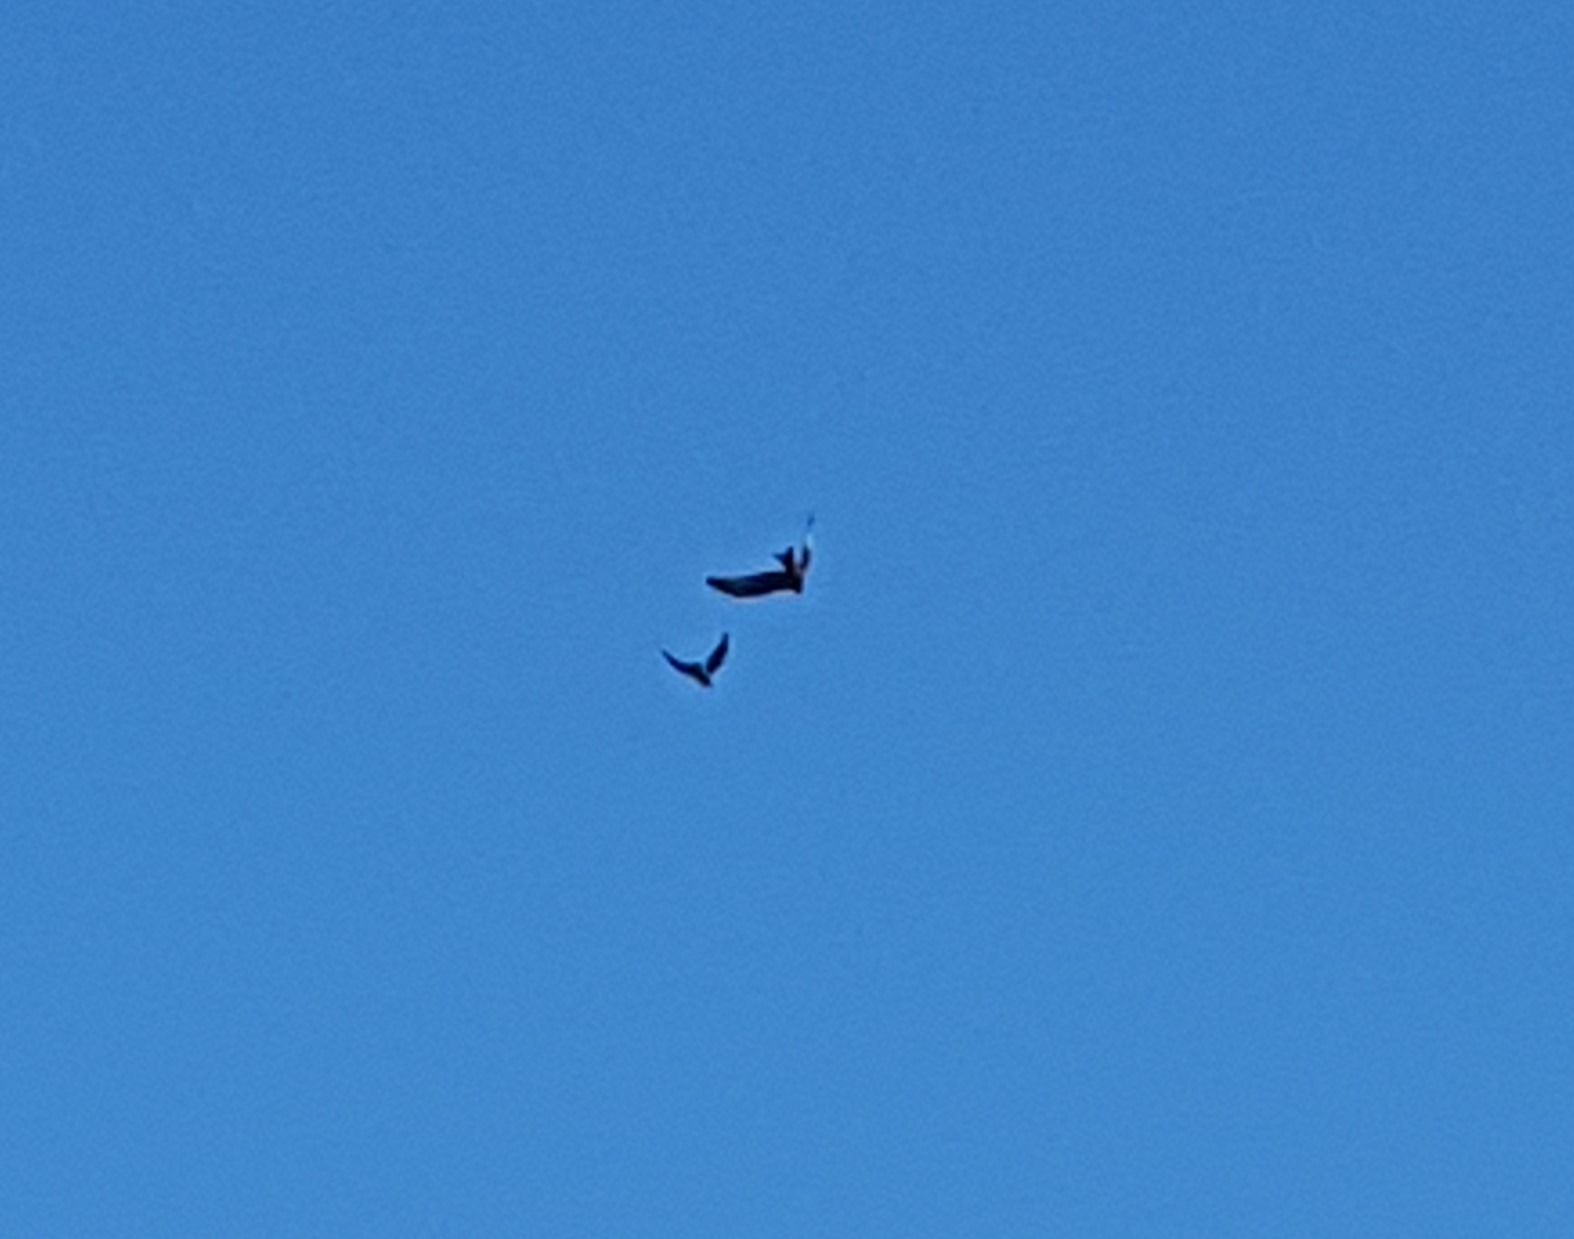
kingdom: Animalia
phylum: Chordata
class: Aves
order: Accipitriformes
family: Accipitridae
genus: Milvus
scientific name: Milvus milvus
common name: Rød glente
